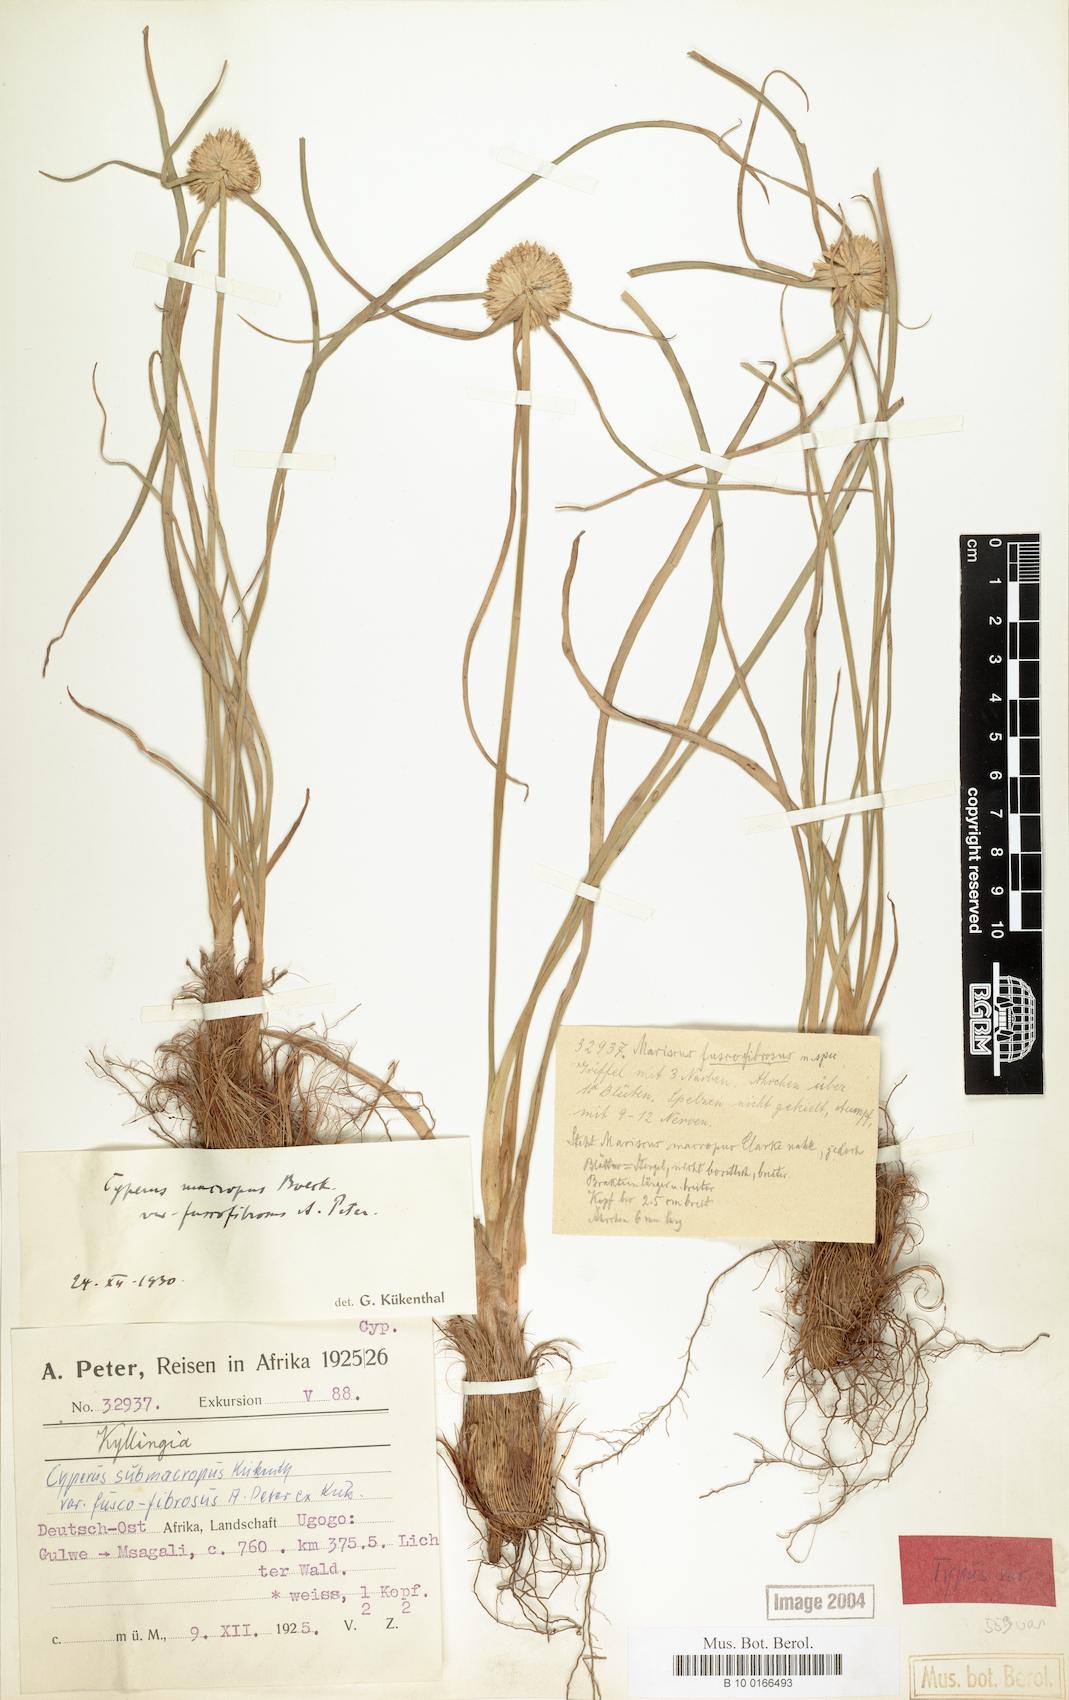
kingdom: Plantae
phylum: Tracheophyta
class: Liliopsida
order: Poales
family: Cyperaceae
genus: Cyperus
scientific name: Cyperus mollipes
